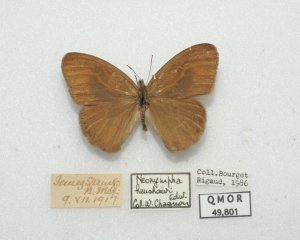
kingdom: Animalia
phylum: Arthropoda
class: Insecta
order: Lepidoptera
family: Nymphalidae
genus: Euptychia
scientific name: Euptychia Cyllopsis pertepida
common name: Canyonland Satyr
